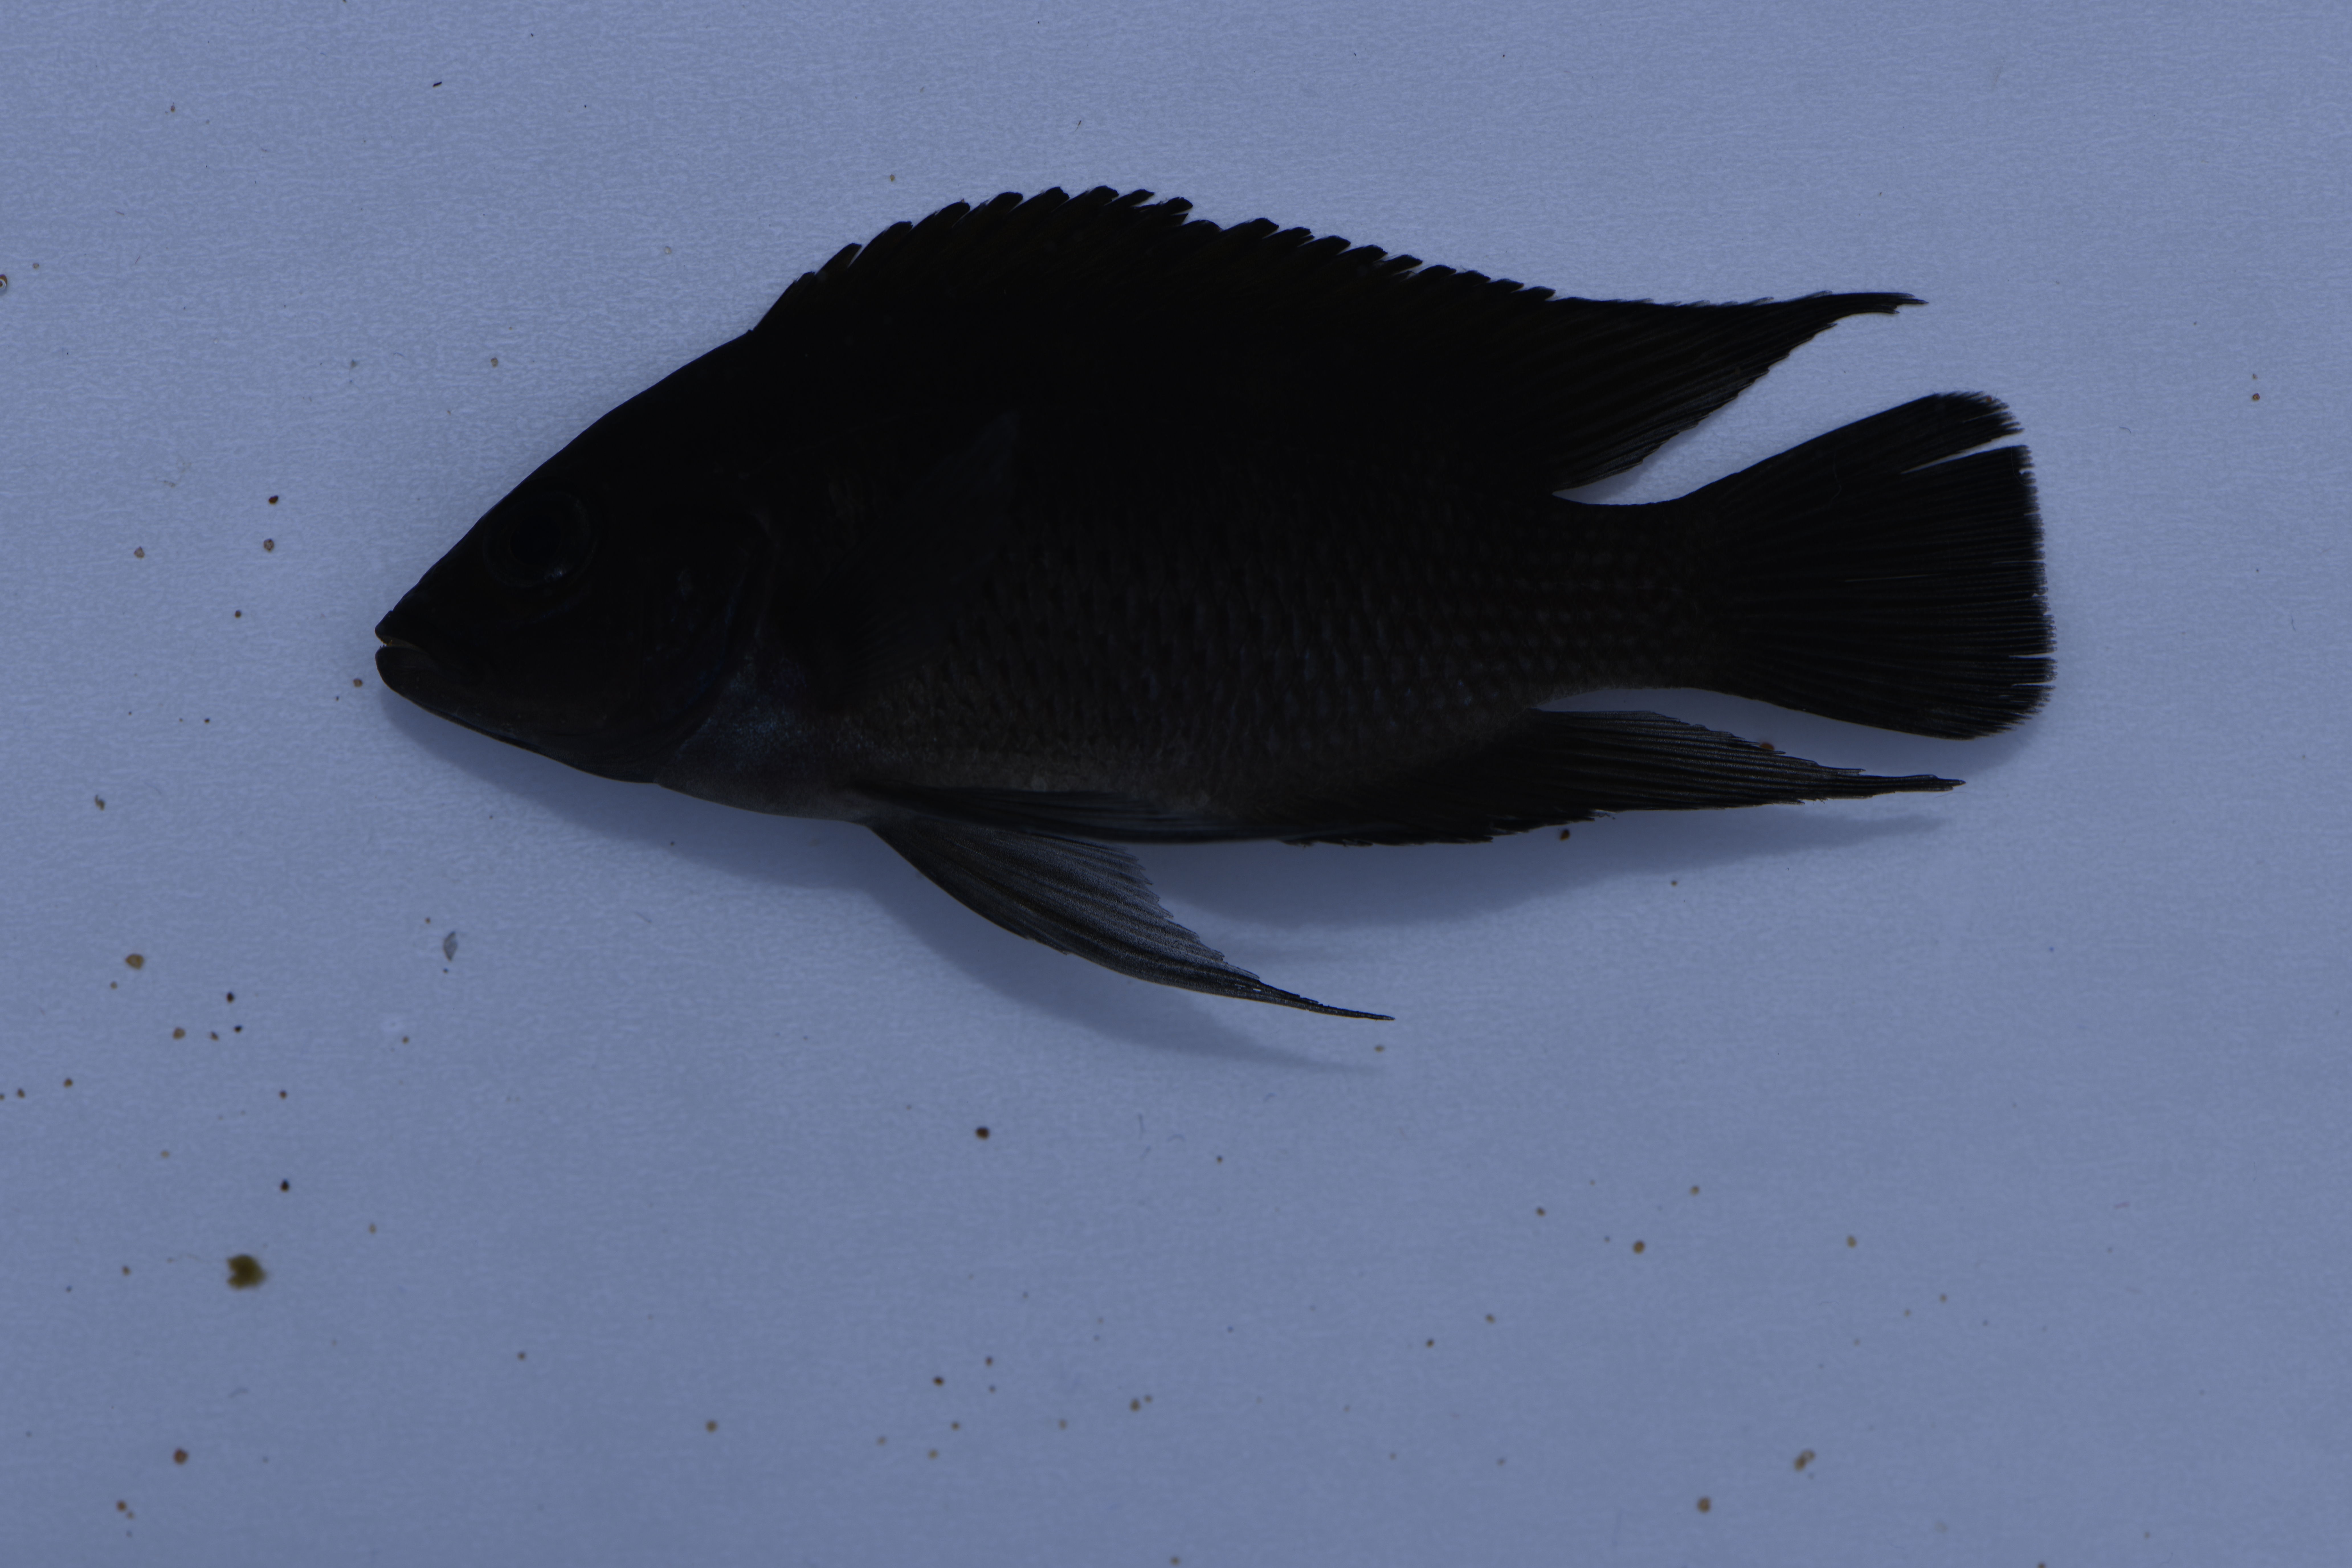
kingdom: Animalia
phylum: Chordata
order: Perciformes
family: Cichlidae
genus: Variabilichromis
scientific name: Variabilichromis moorii
